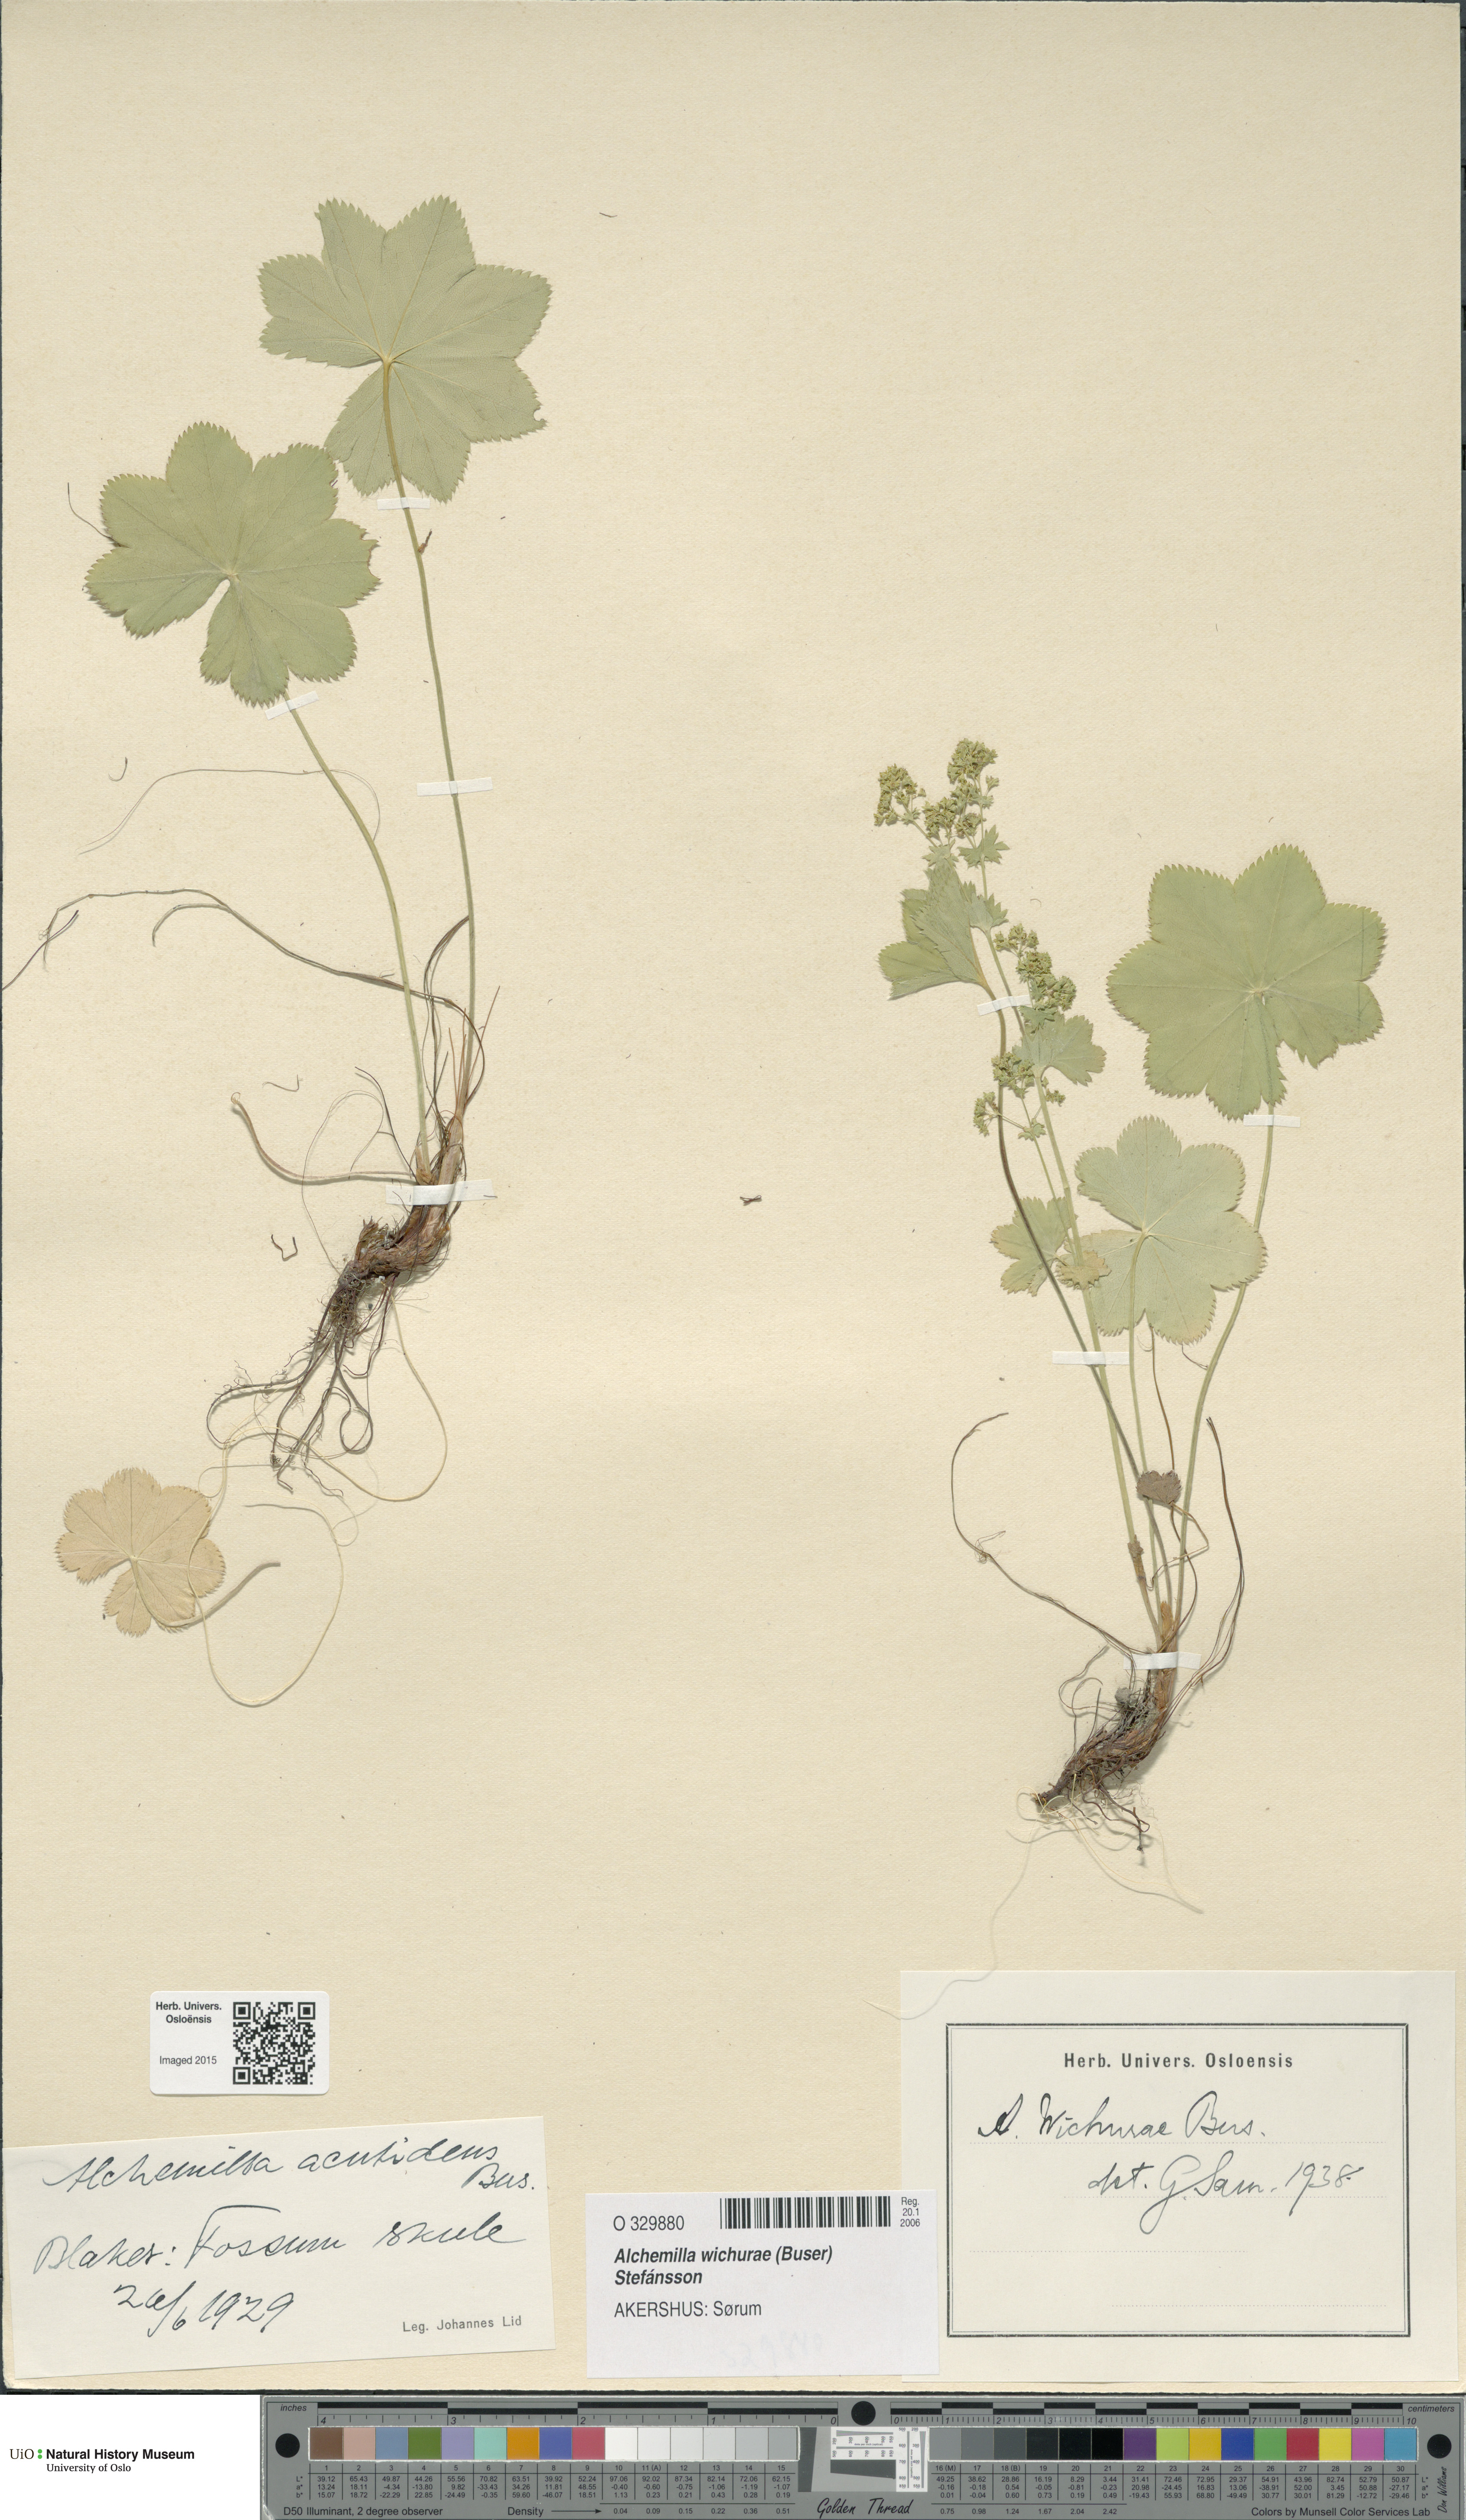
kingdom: Plantae
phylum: Tracheophyta
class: Magnoliopsida
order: Rosales
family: Rosaceae
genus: Alchemilla
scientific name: Alchemilla wichurae
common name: Rock lady's mantle
